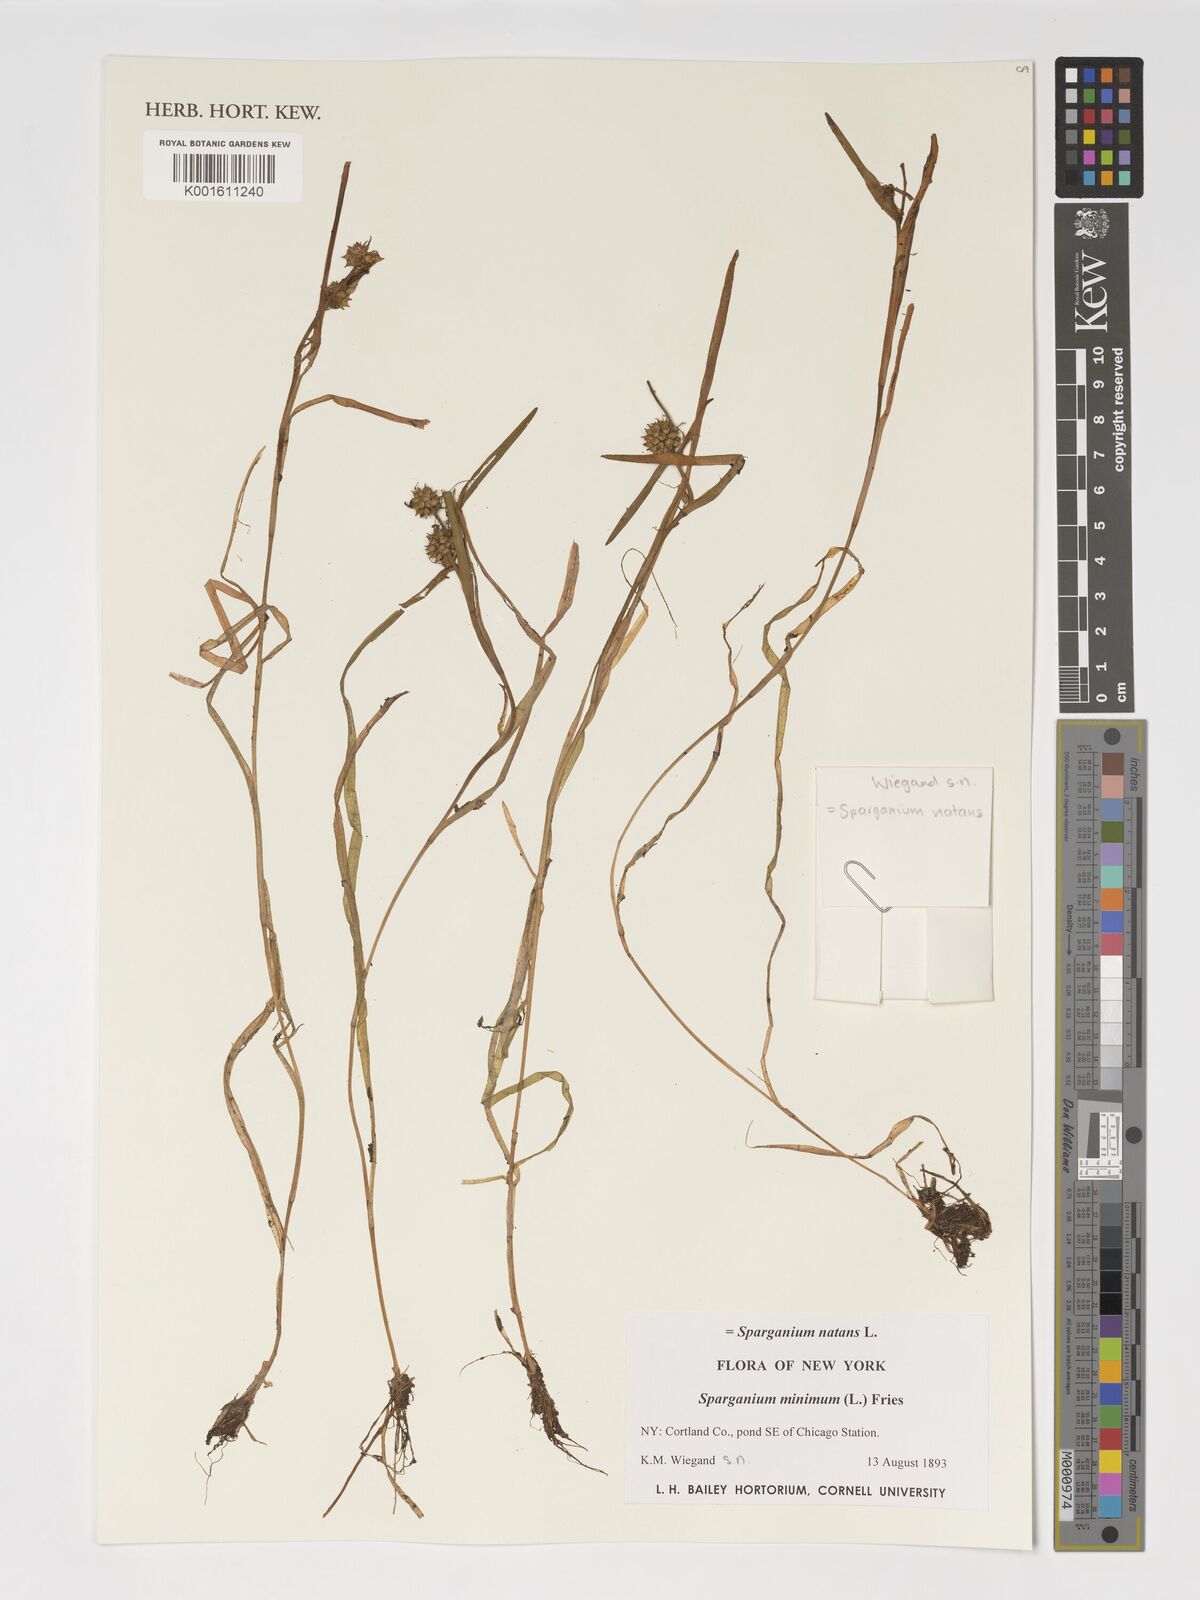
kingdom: Plantae
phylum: Tracheophyta
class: Liliopsida
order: Poales
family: Typhaceae
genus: Sparganium
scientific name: Sparganium natans
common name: Least bur-reed
